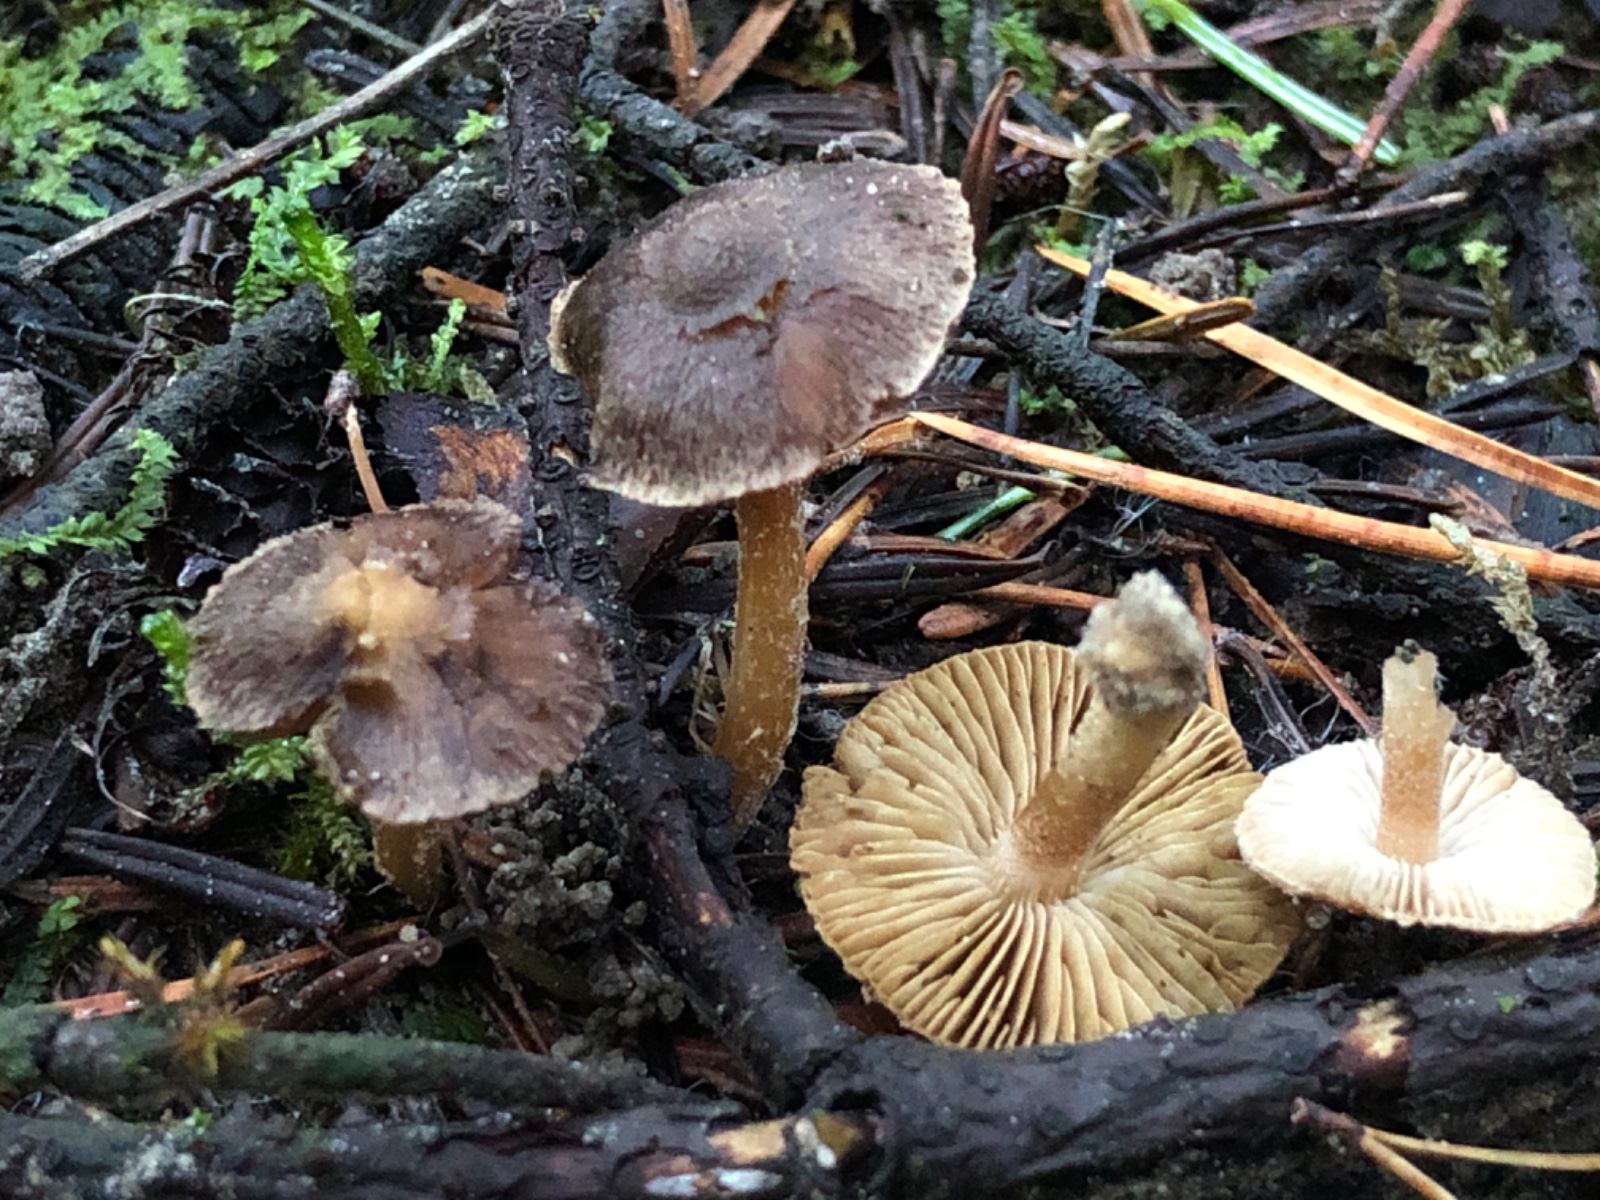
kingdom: Fungi
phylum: Basidiomycota
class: Agaricomycetes
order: Agaricales
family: Inocybaceae
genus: Inocybe
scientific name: Inocybe
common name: trævlhat
